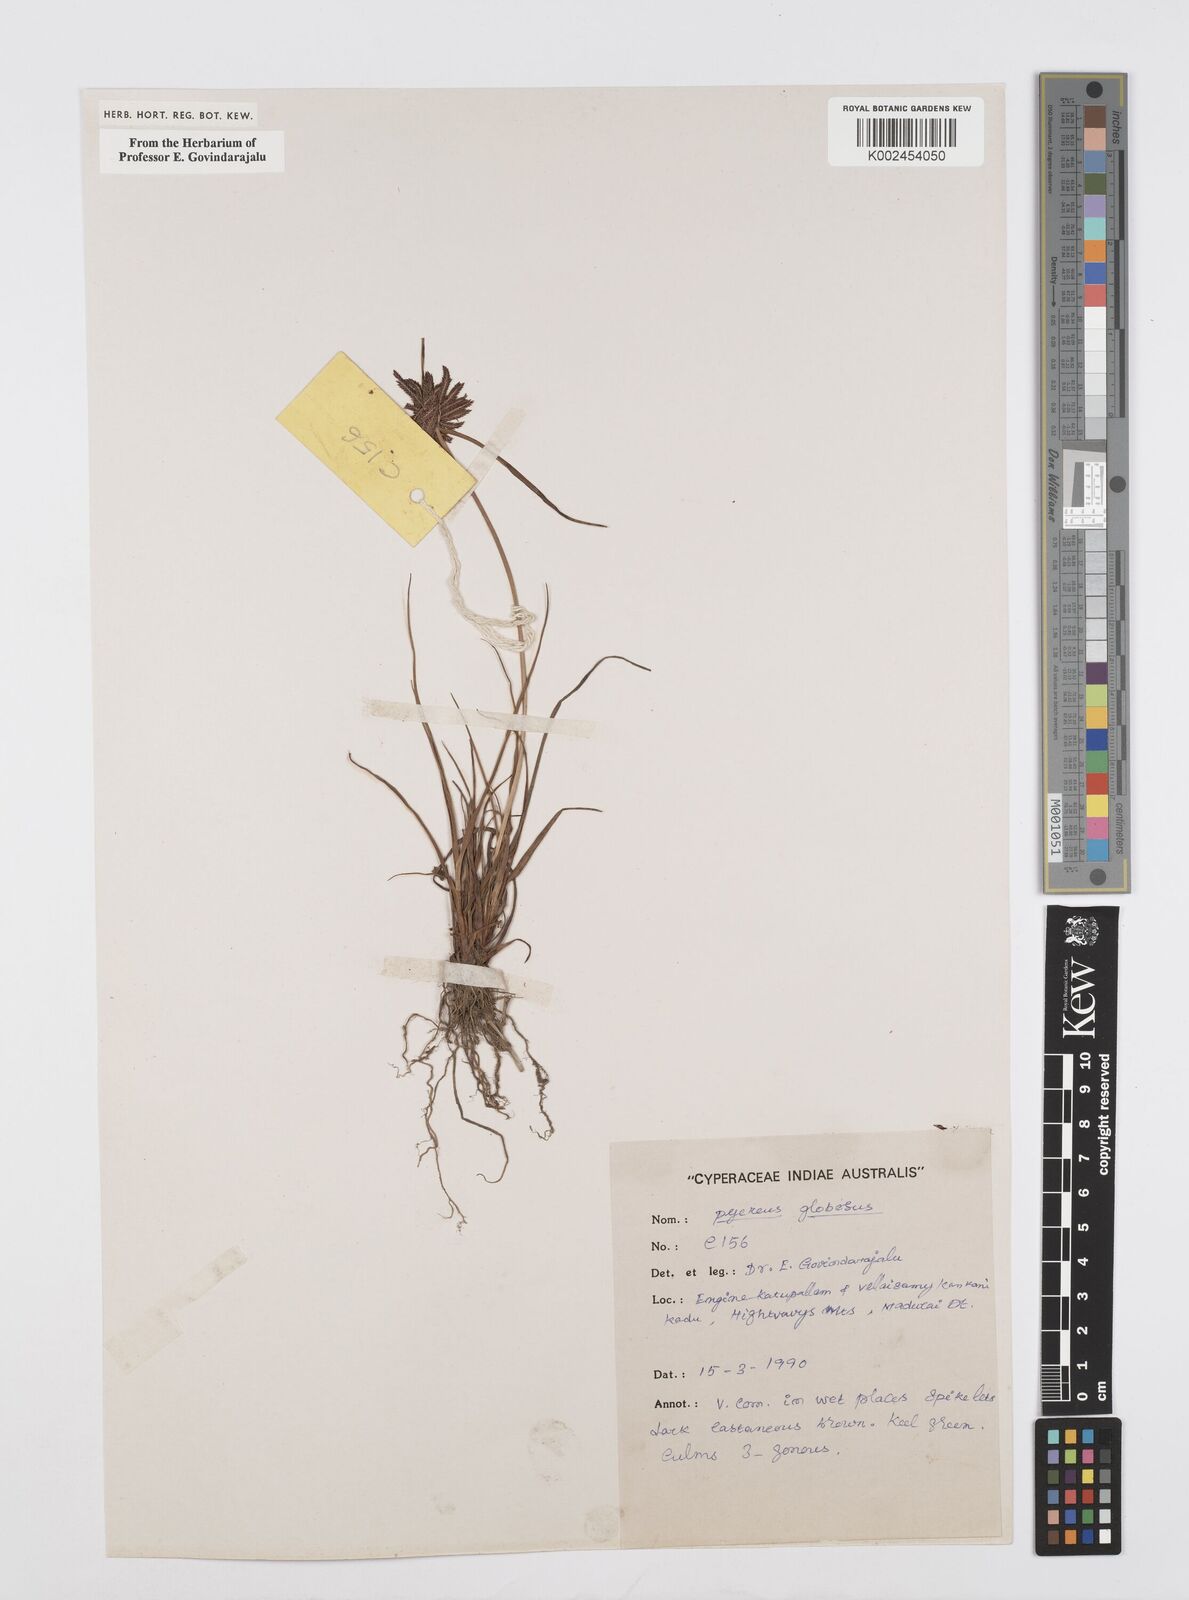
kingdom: Plantae
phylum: Tracheophyta
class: Liliopsida
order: Poales
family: Cyperaceae
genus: Cyperus
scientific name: Cyperus flavidus
